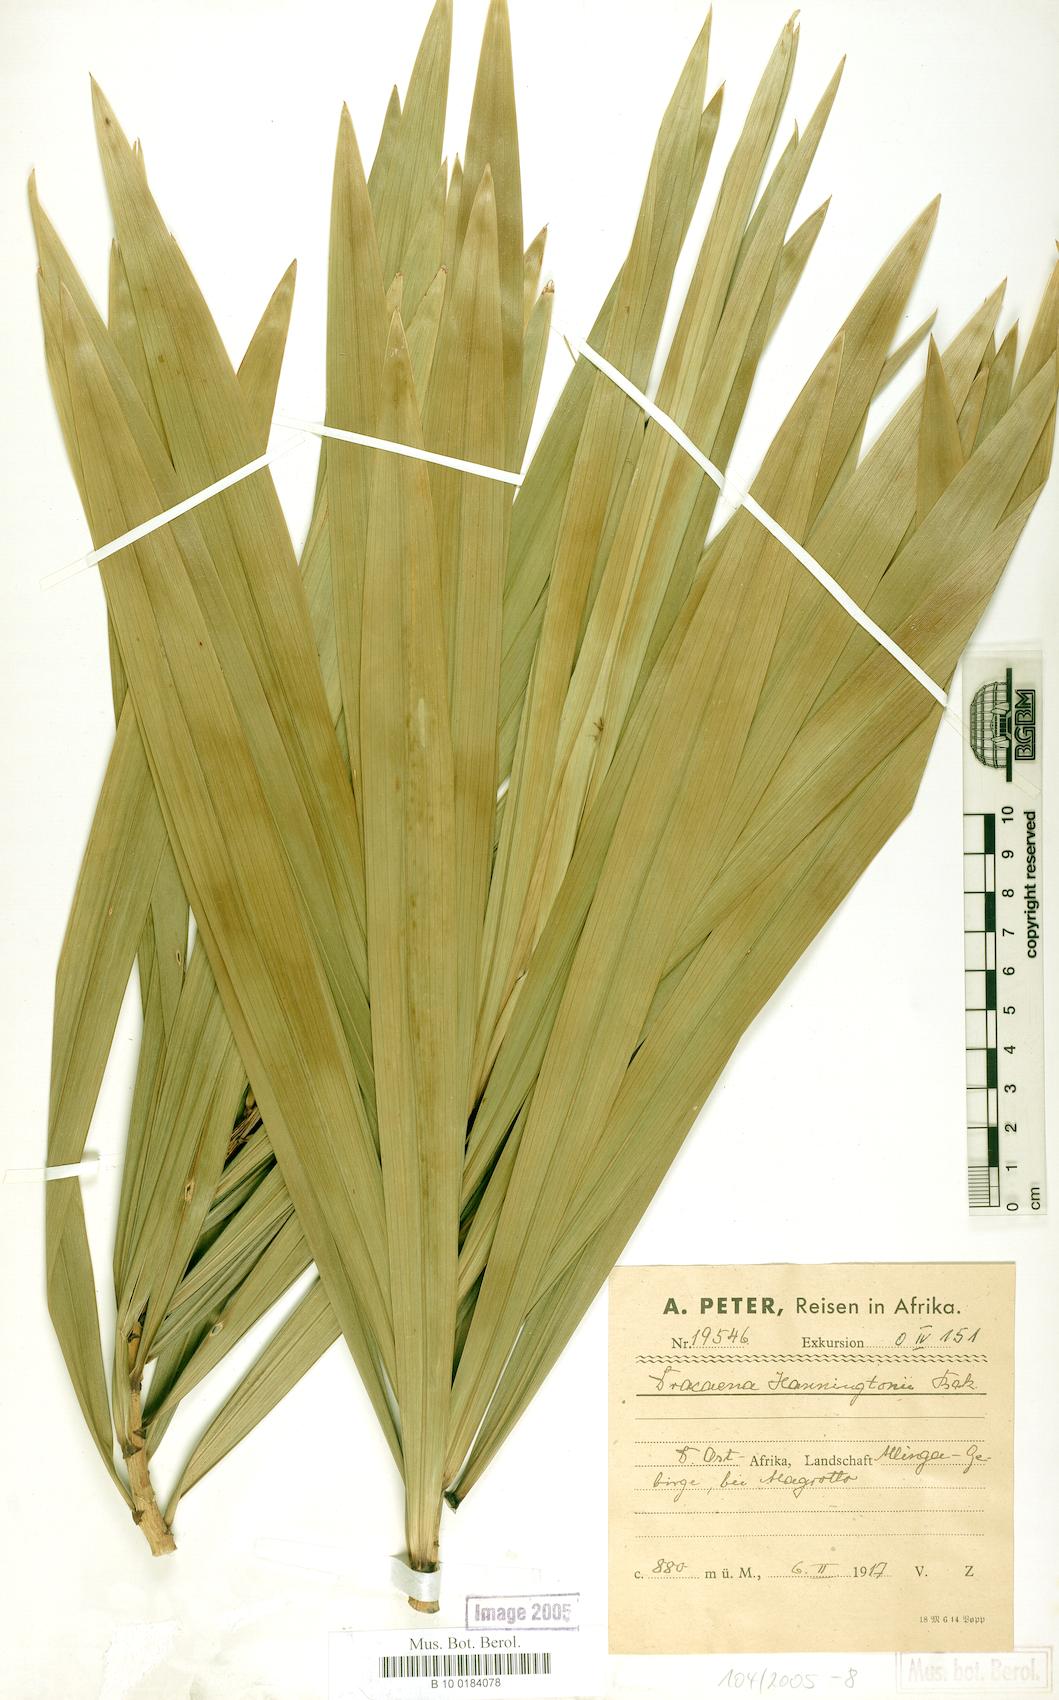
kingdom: Plantae
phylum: Tracheophyta
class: Liliopsida
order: Asparagales
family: Asparagaceae
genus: Dracaena
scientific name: Dracaena mannii
